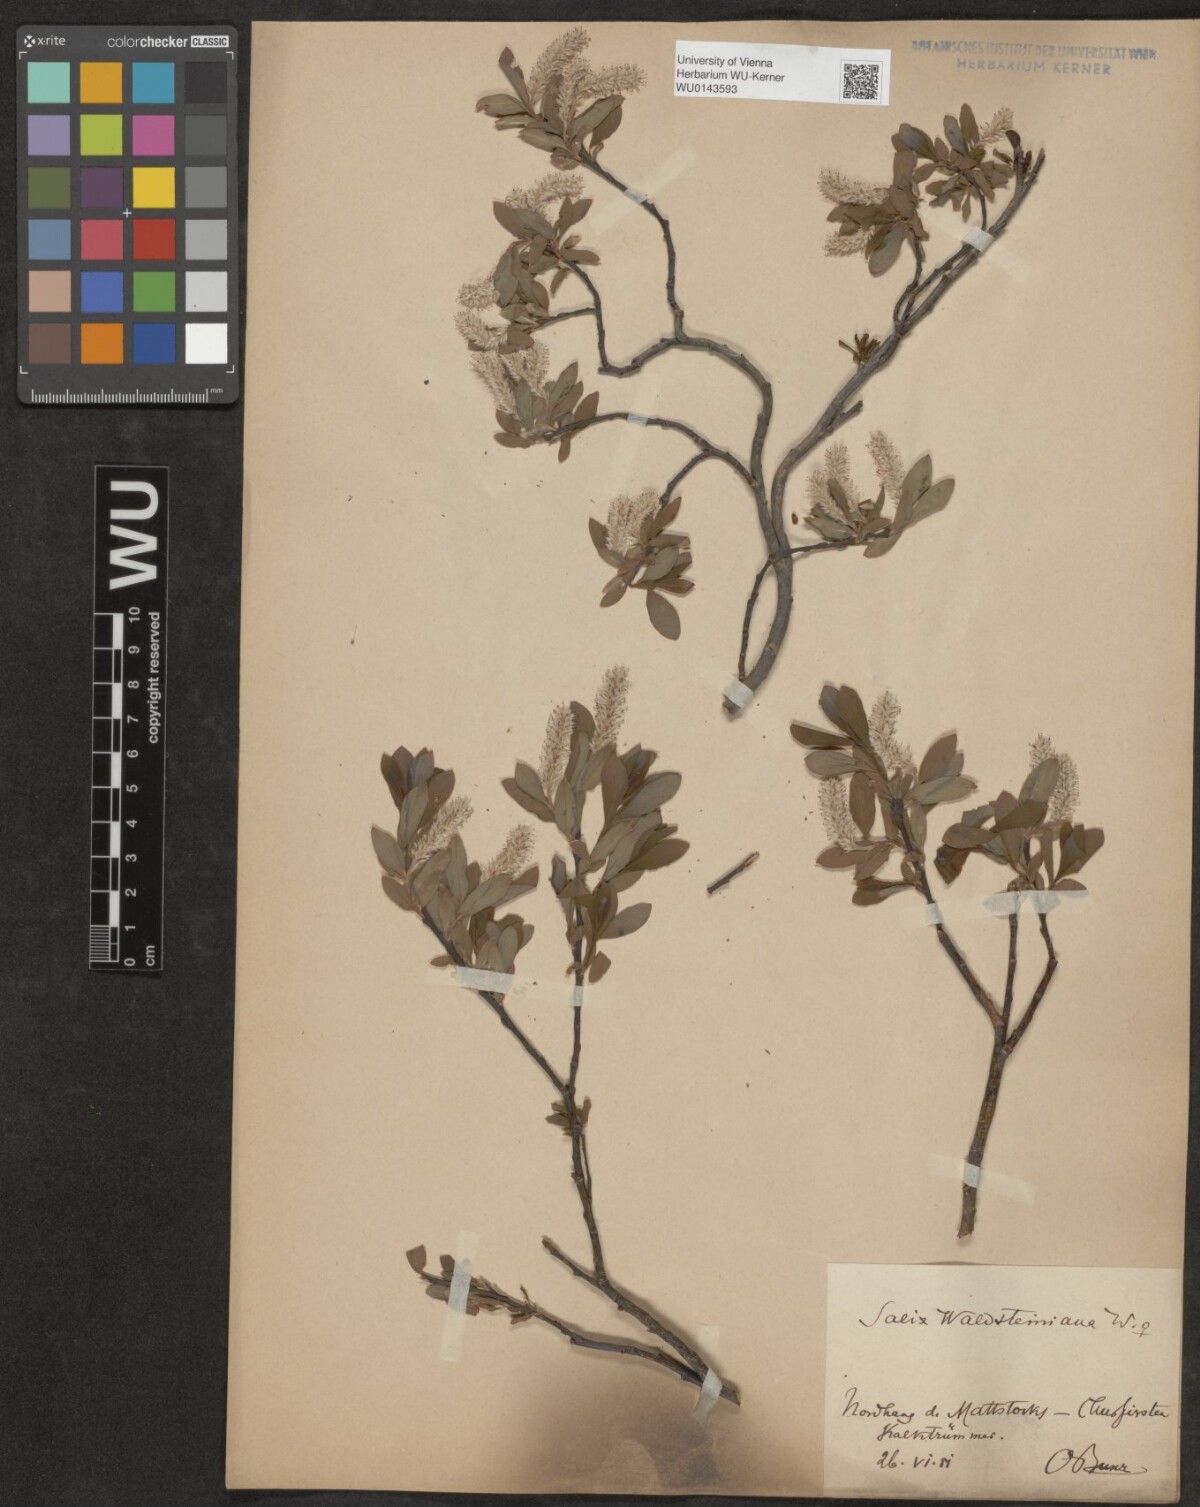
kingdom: Plantae
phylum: Tracheophyta
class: Magnoliopsida
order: Malpighiales
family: Salicaceae
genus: Salix
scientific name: Salix waldsteiniana
